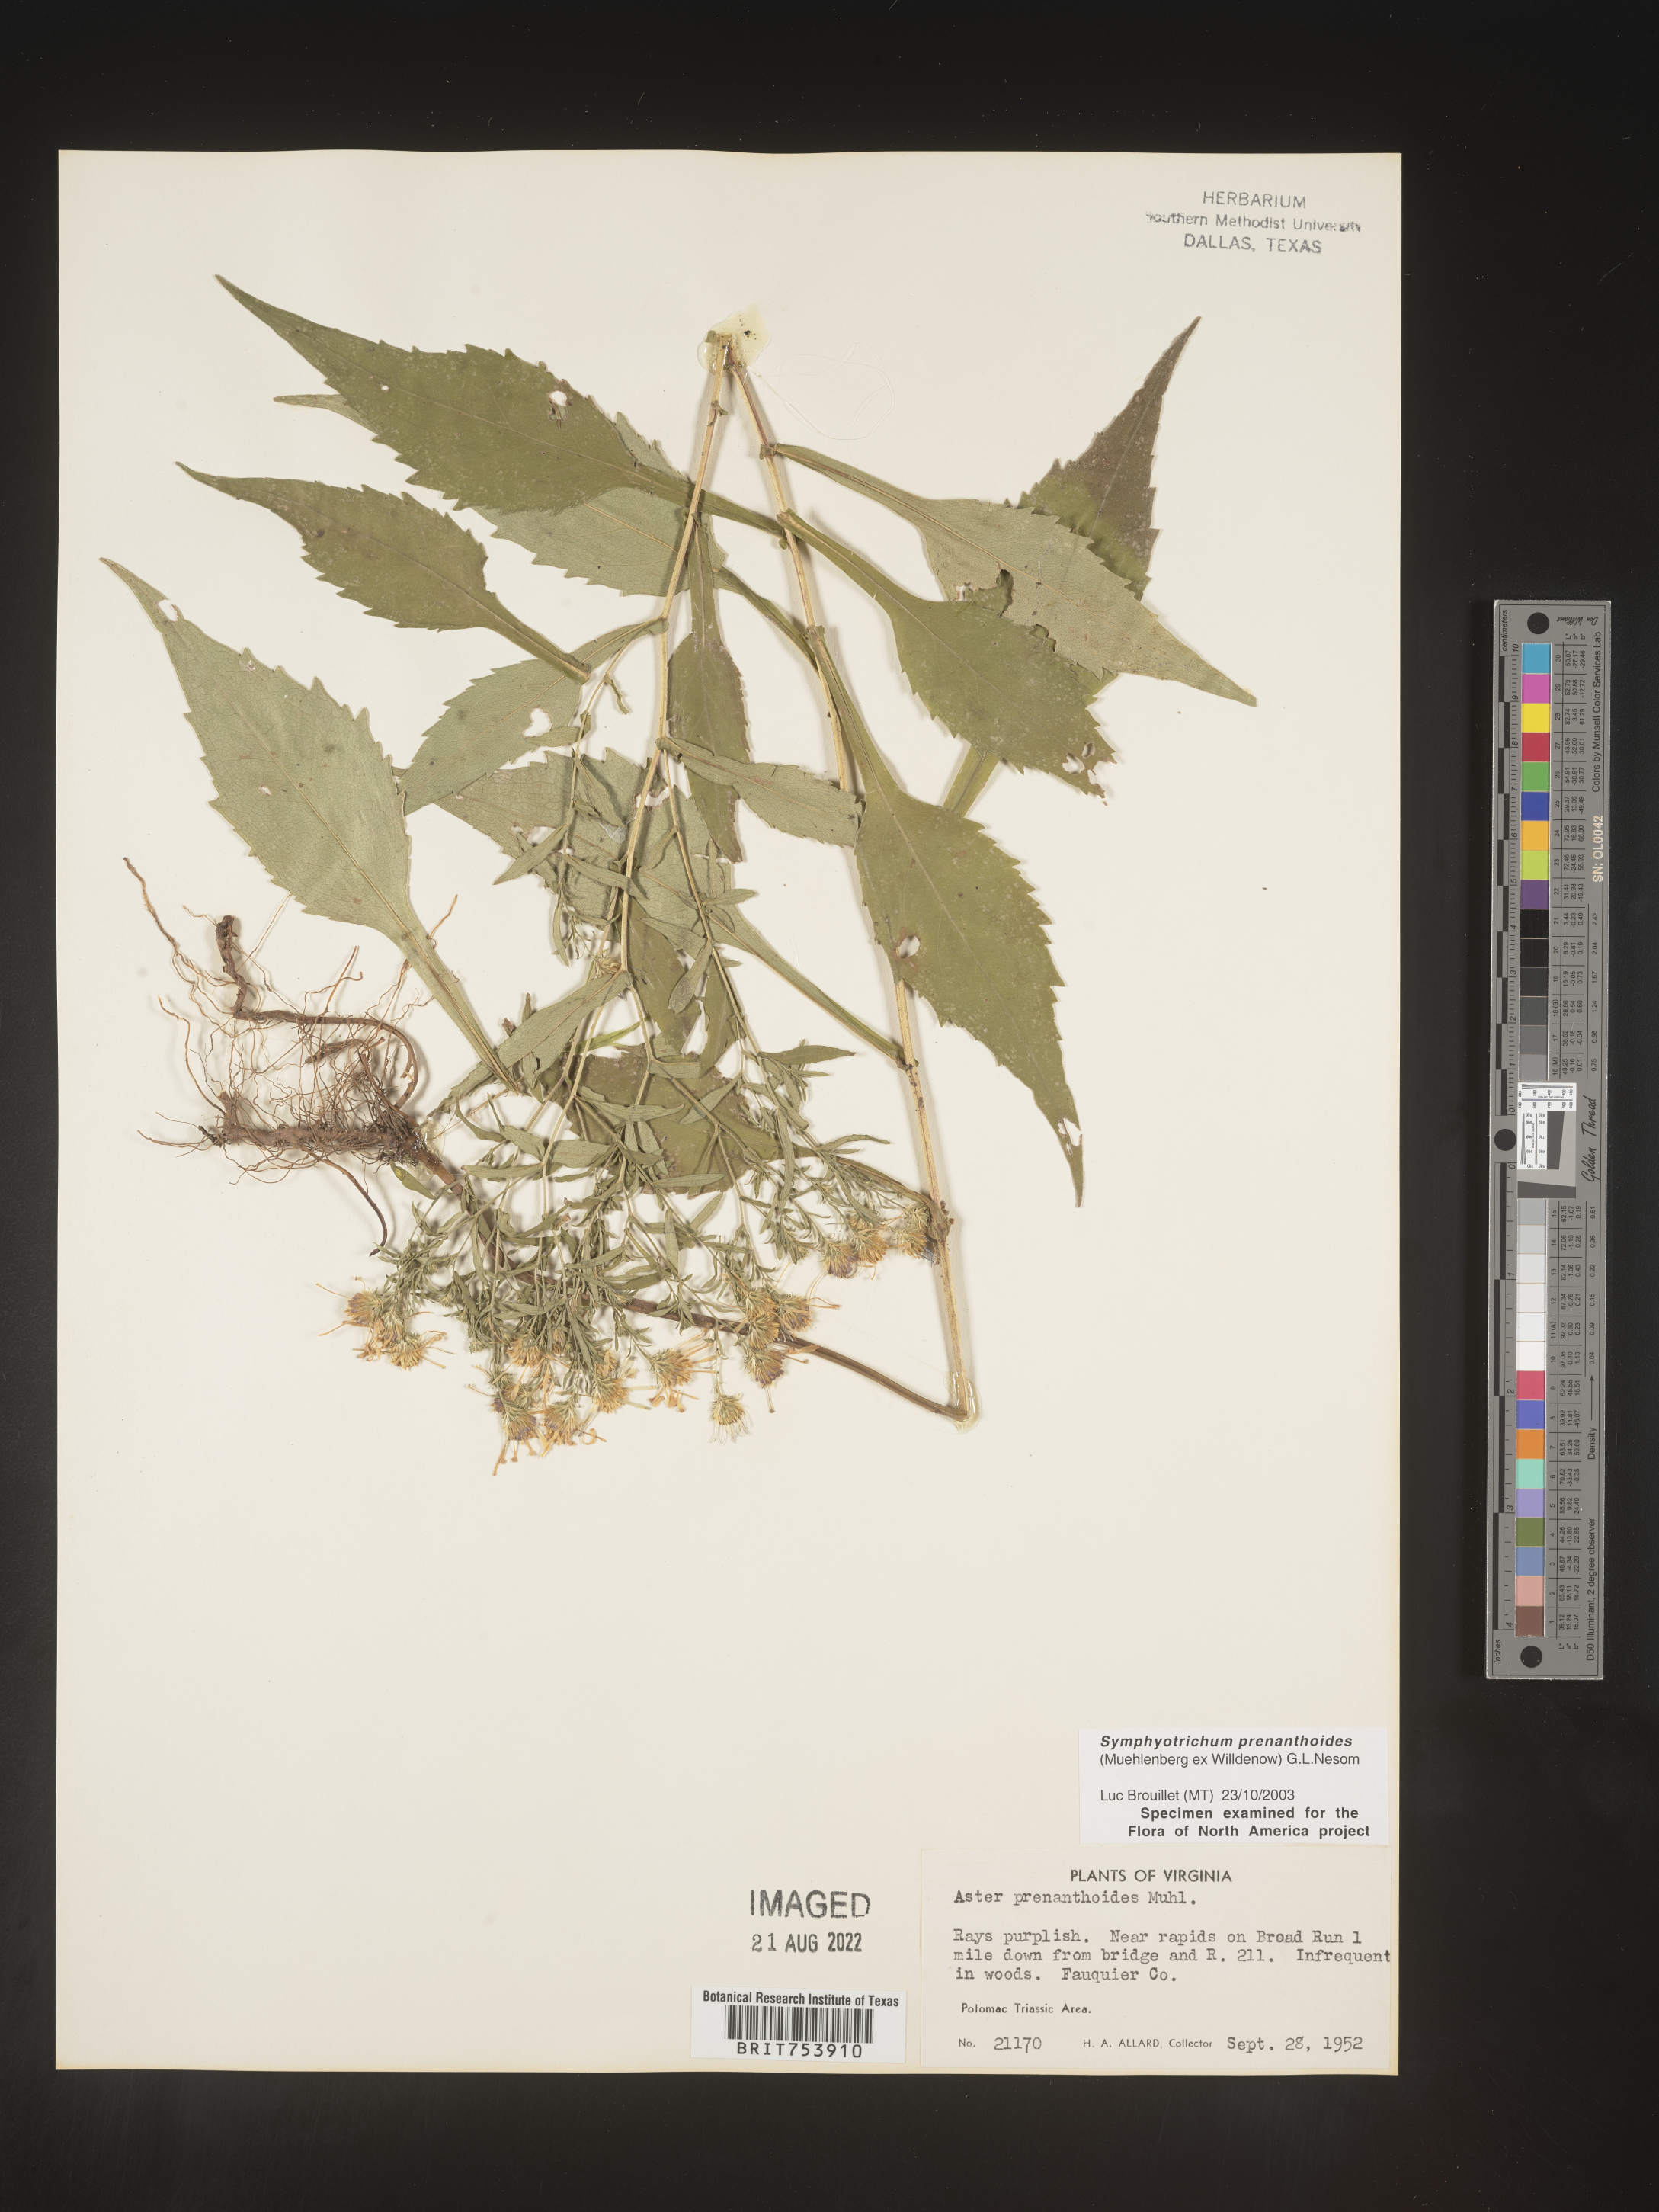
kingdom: Plantae
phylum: Tracheophyta
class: Magnoliopsida
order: Asterales
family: Asteraceae
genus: Symphyotrichum
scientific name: Symphyotrichum prenanthoides
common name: Crooked-stem aster
